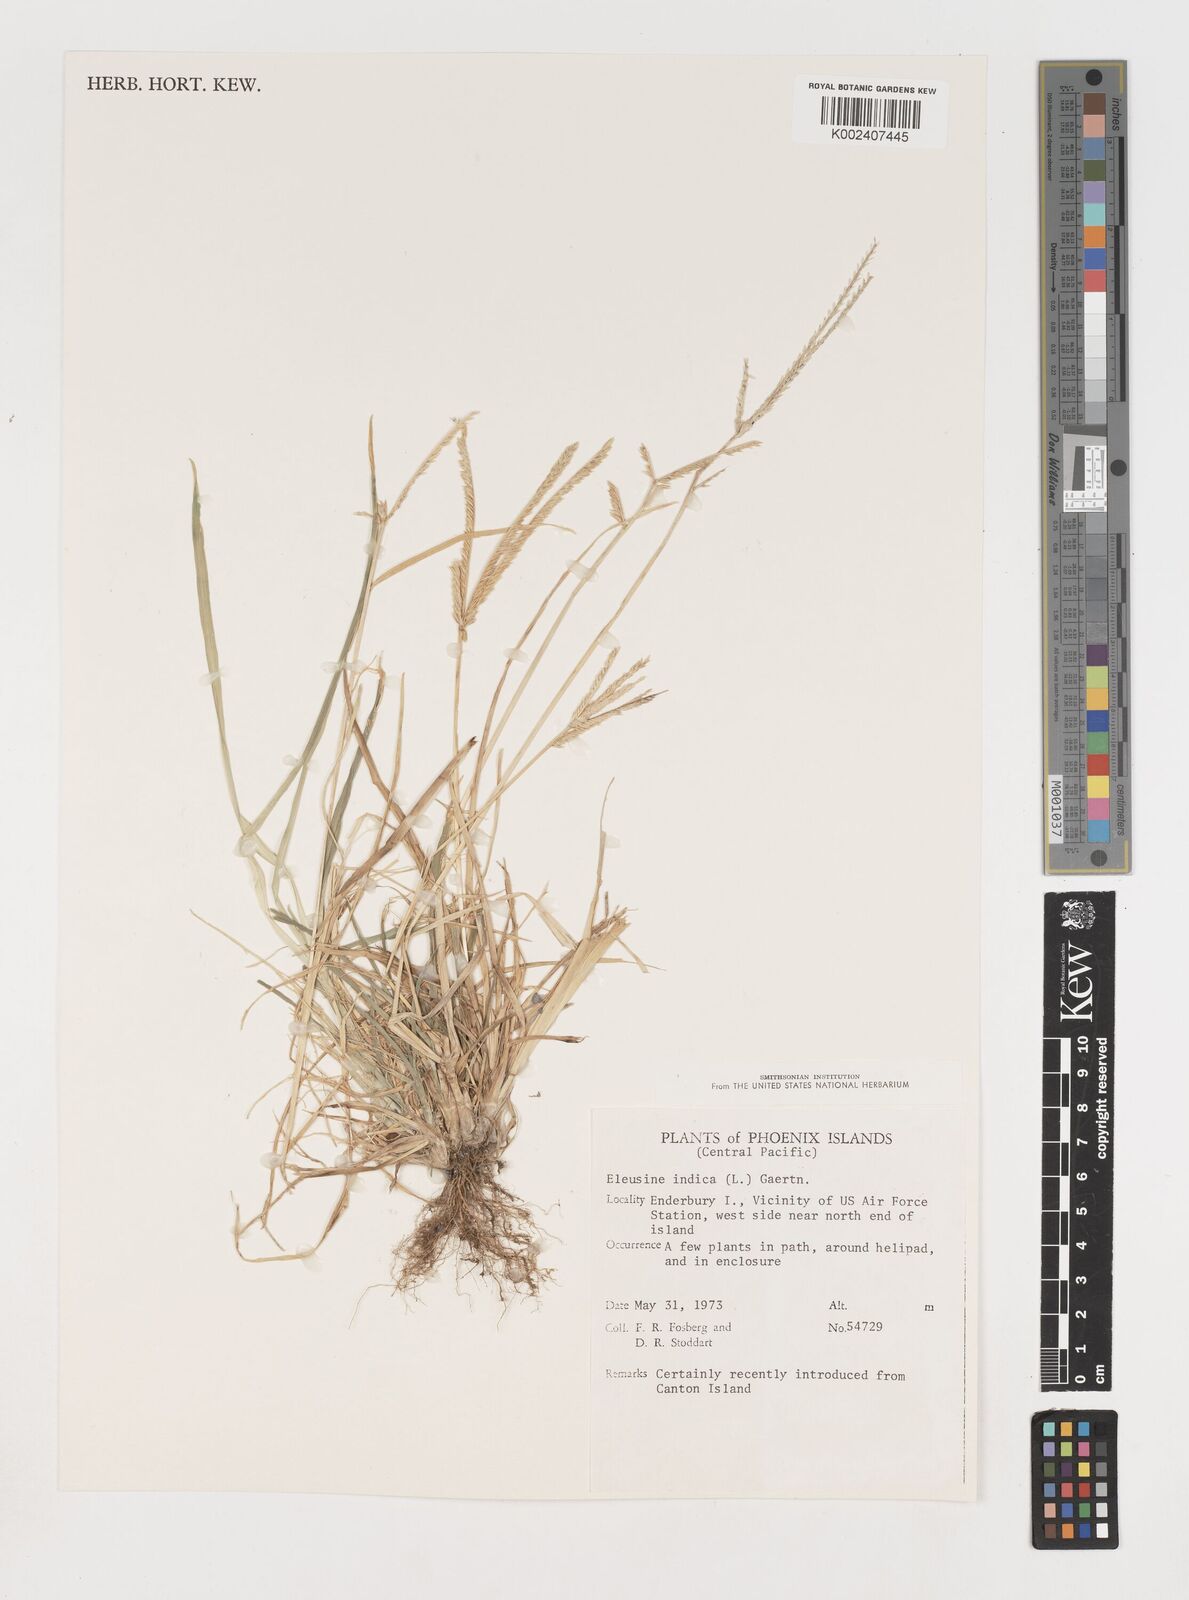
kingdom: Plantae
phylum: Tracheophyta
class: Liliopsida
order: Poales
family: Poaceae
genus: Eleusine
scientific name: Eleusine
